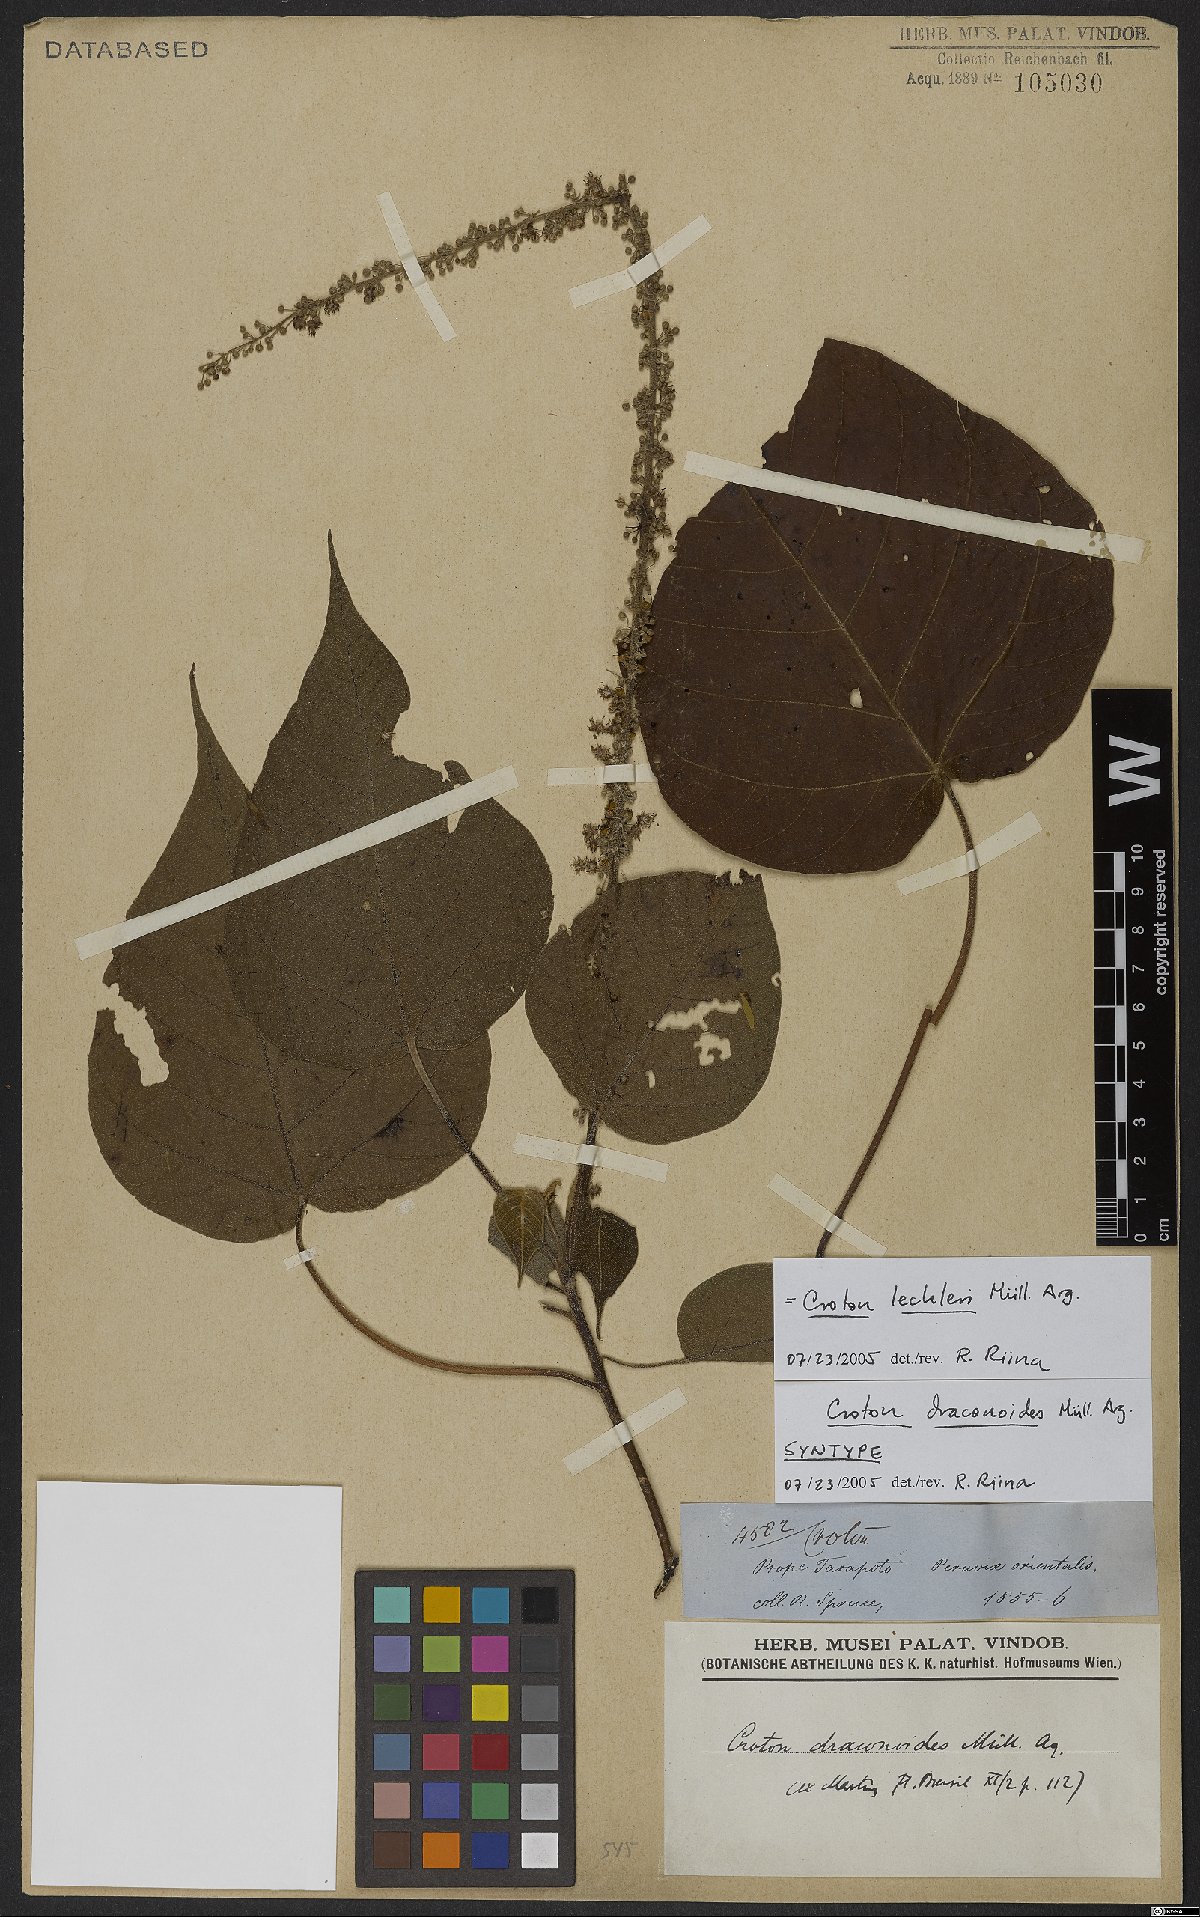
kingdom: Plantae
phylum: Tracheophyta
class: Magnoliopsida
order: Malpighiales
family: Euphorbiaceae
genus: Croton
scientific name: Croton lechleri
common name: Dragon's blood
